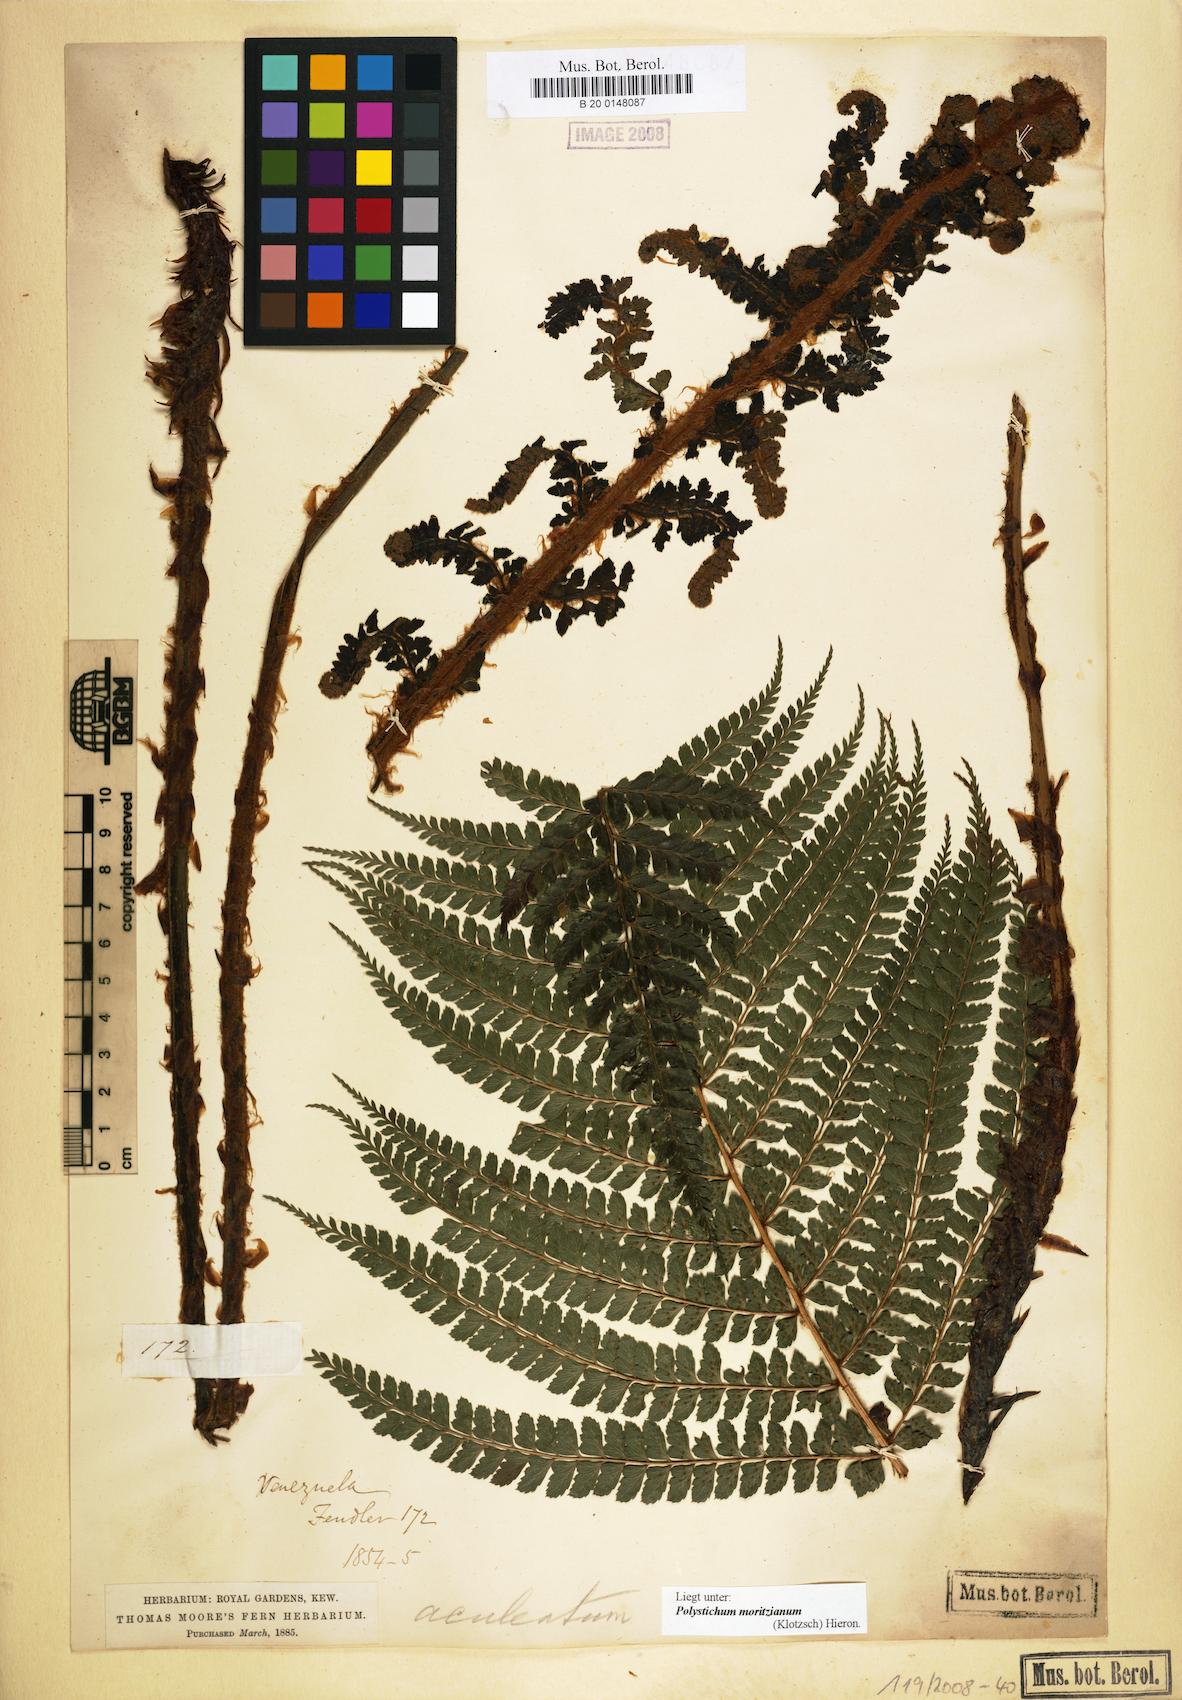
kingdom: Plantae
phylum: Tracheophyta
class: Polypodiopsida
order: Polypodiales
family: Dryopteridaceae
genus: Polystichum
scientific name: Polystichum muricatum
